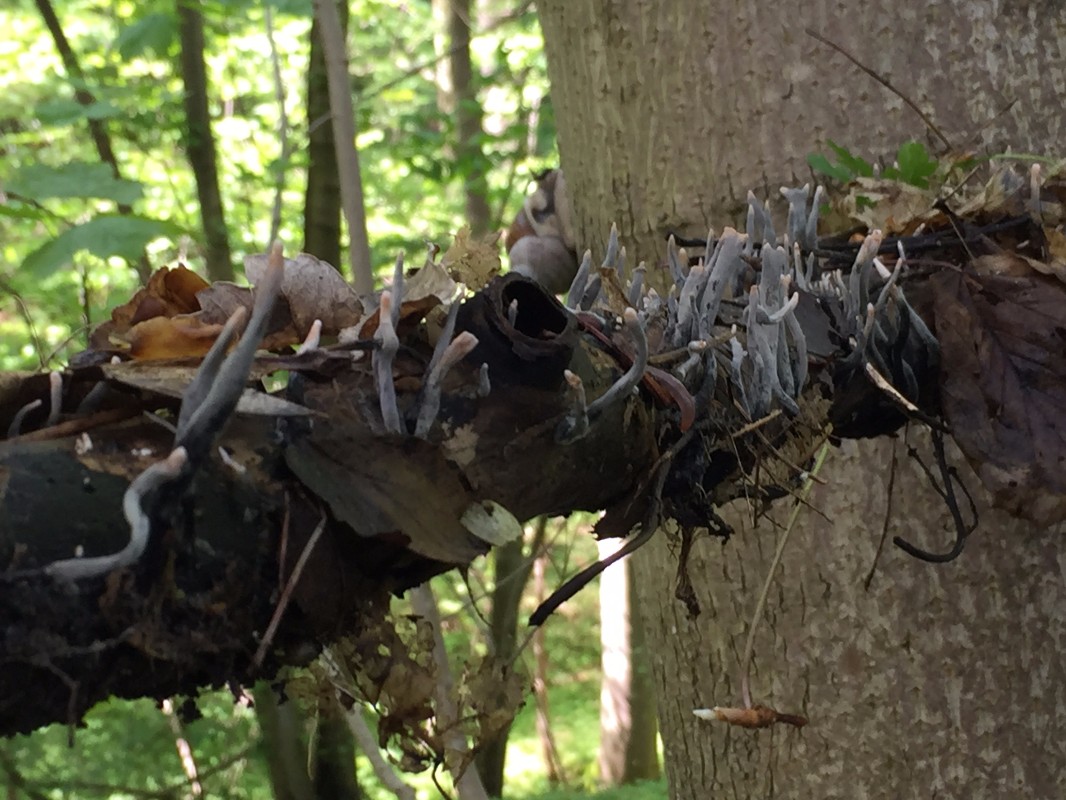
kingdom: Fungi
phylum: Ascomycota
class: Sordariomycetes
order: Xylariales
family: Xylariaceae
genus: Xylaria
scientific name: Xylaria hypoxylon
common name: grenet stødsvamp
